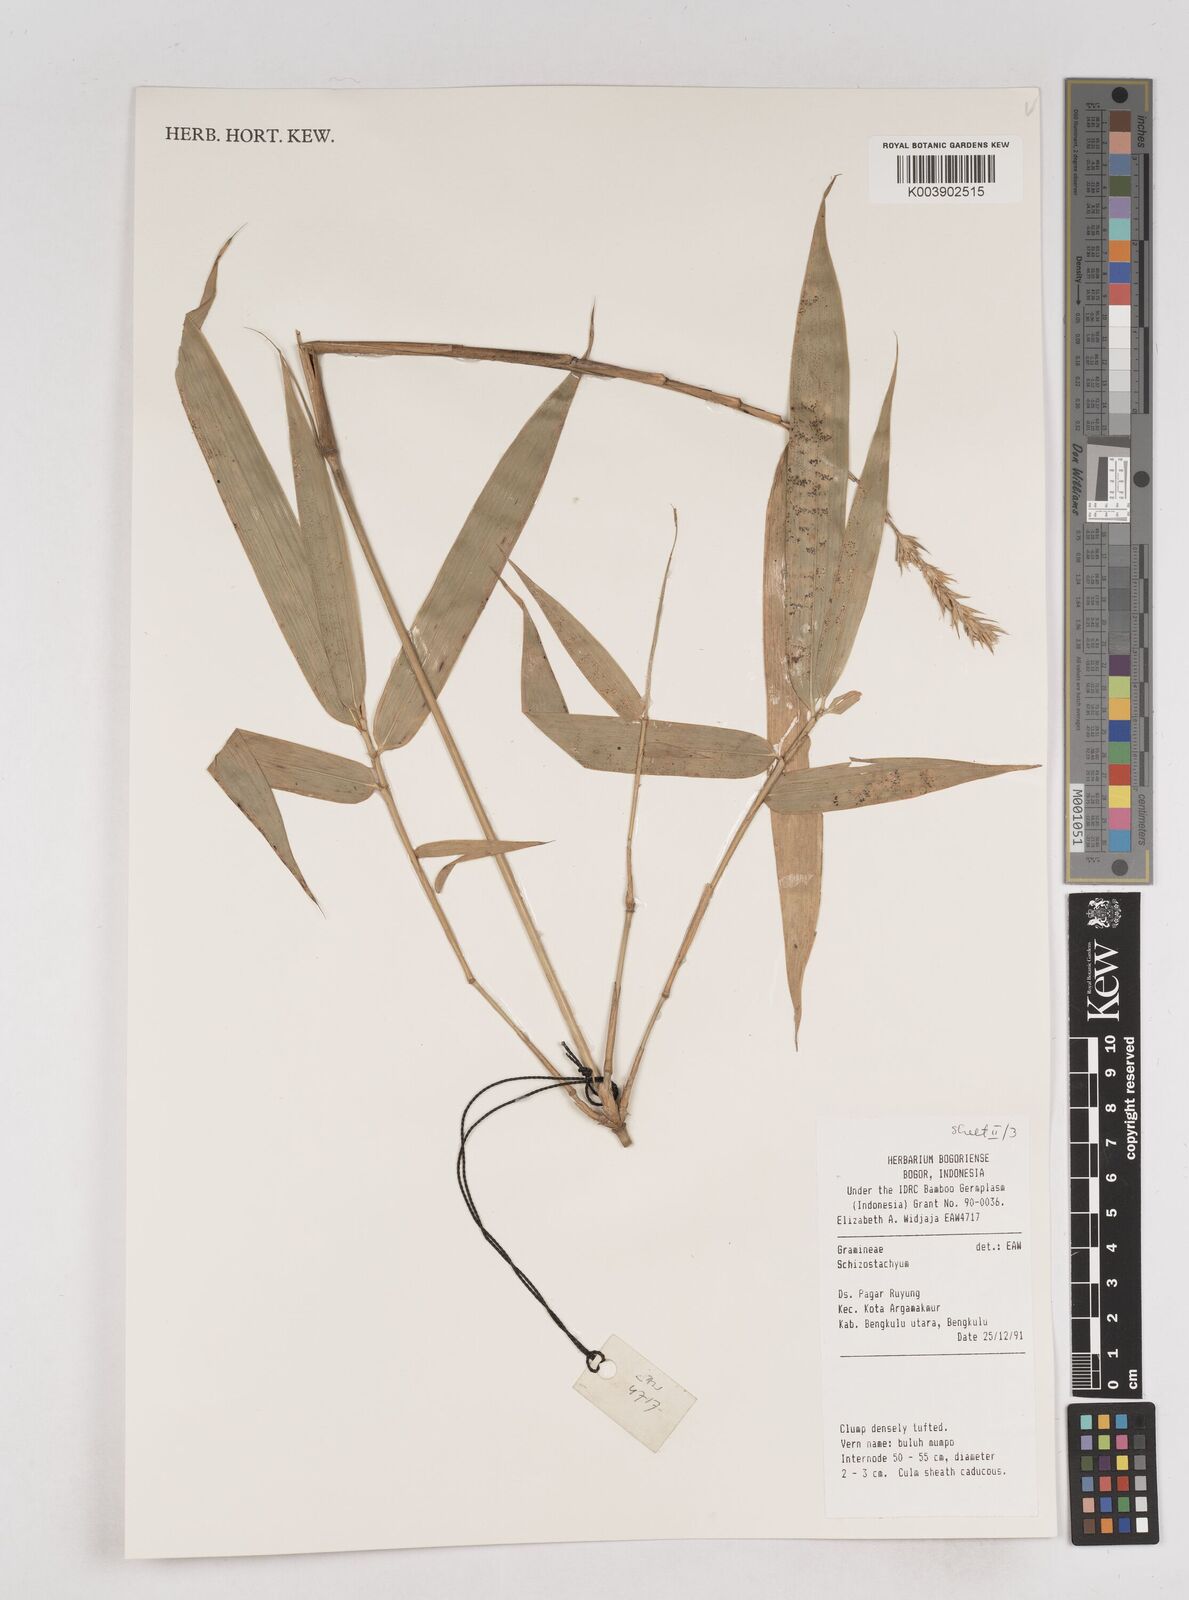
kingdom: Plantae
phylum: Tracheophyta
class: Liliopsida
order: Poales
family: Poaceae
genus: Schizostachyum
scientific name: Schizostachyum
